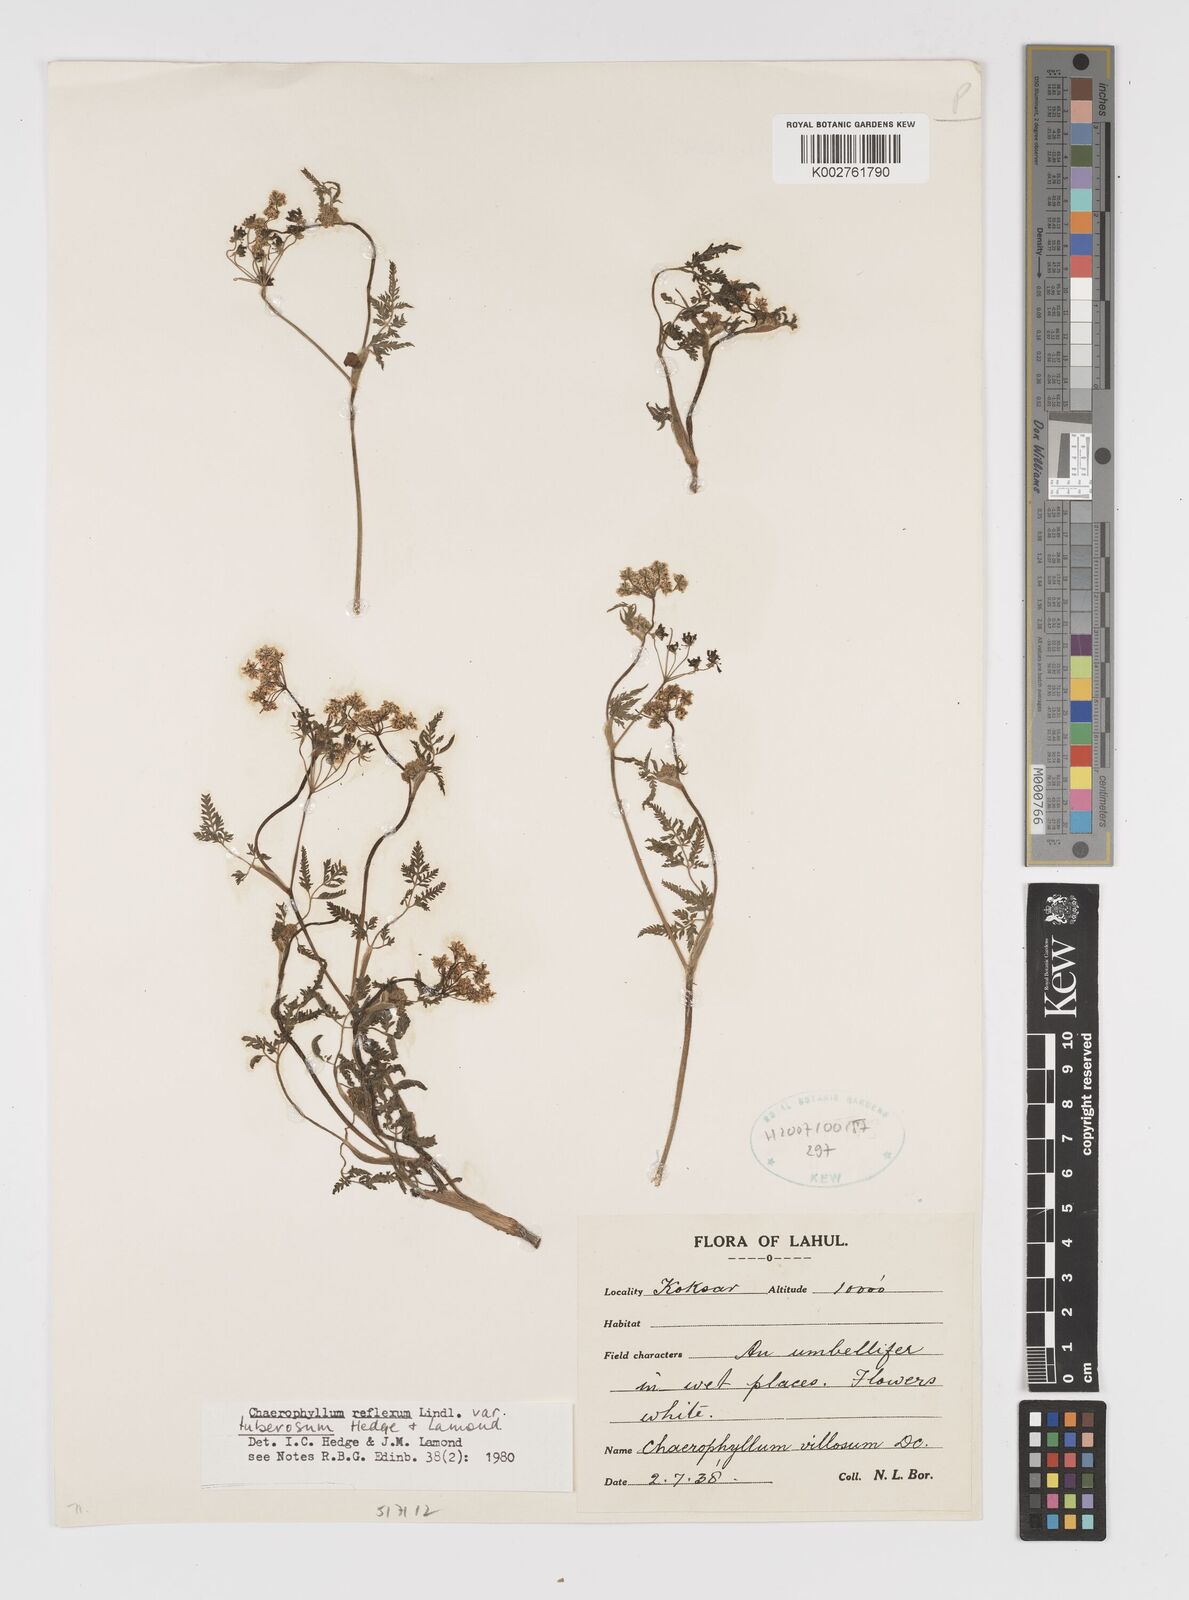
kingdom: Plantae
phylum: Tracheophyta
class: Magnoliopsida
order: Apiales
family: Apiaceae
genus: Chaerophyllum
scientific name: Chaerophyllum reflexum
